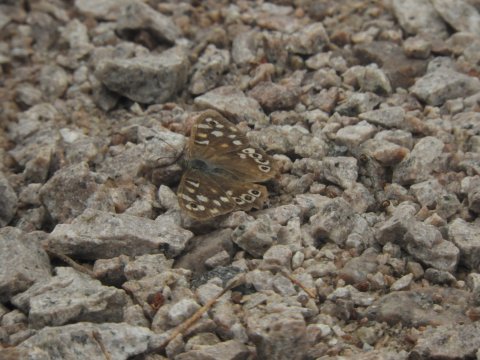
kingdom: Animalia
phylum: Arthropoda
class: Insecta
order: Lepidoptera
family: Nymphalidae
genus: Pararge
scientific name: Pararge aegeria
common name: Speckled Wood Butterfly
